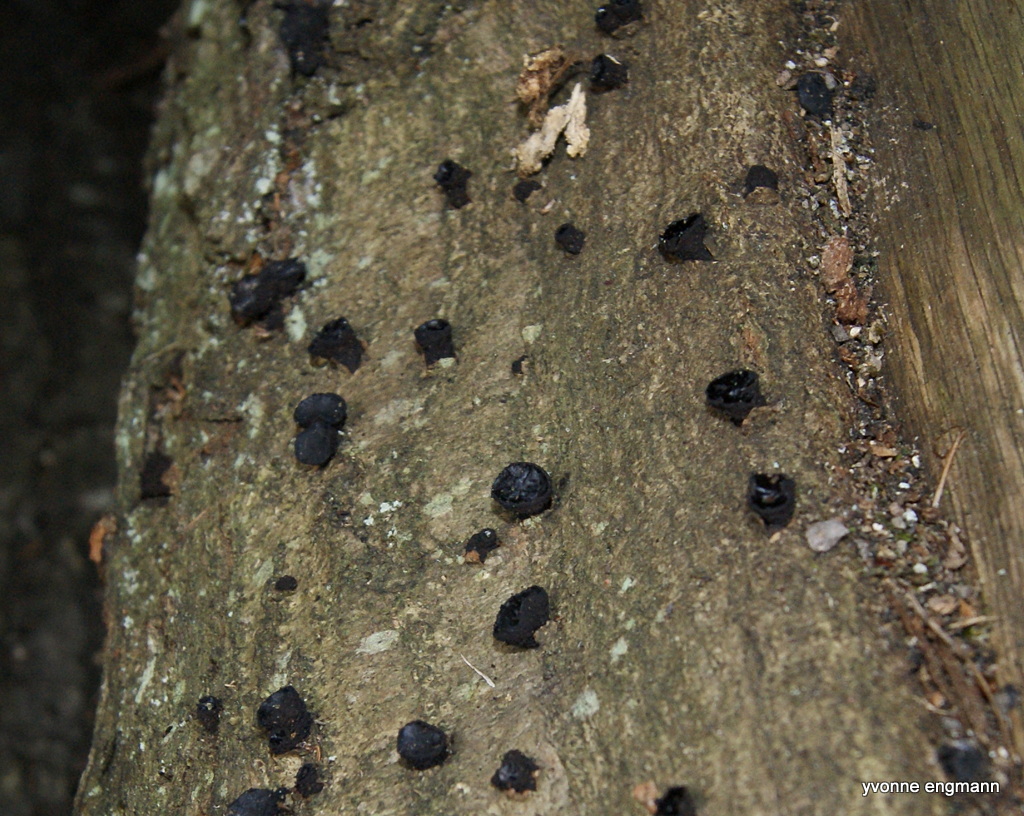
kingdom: Fungi
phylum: Ascomycota
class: Leotiomycetes
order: Phacidiales
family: Phacidiaceae
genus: Bulgaria
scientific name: Bulgaria inquinans
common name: afsmittende topsvamp
